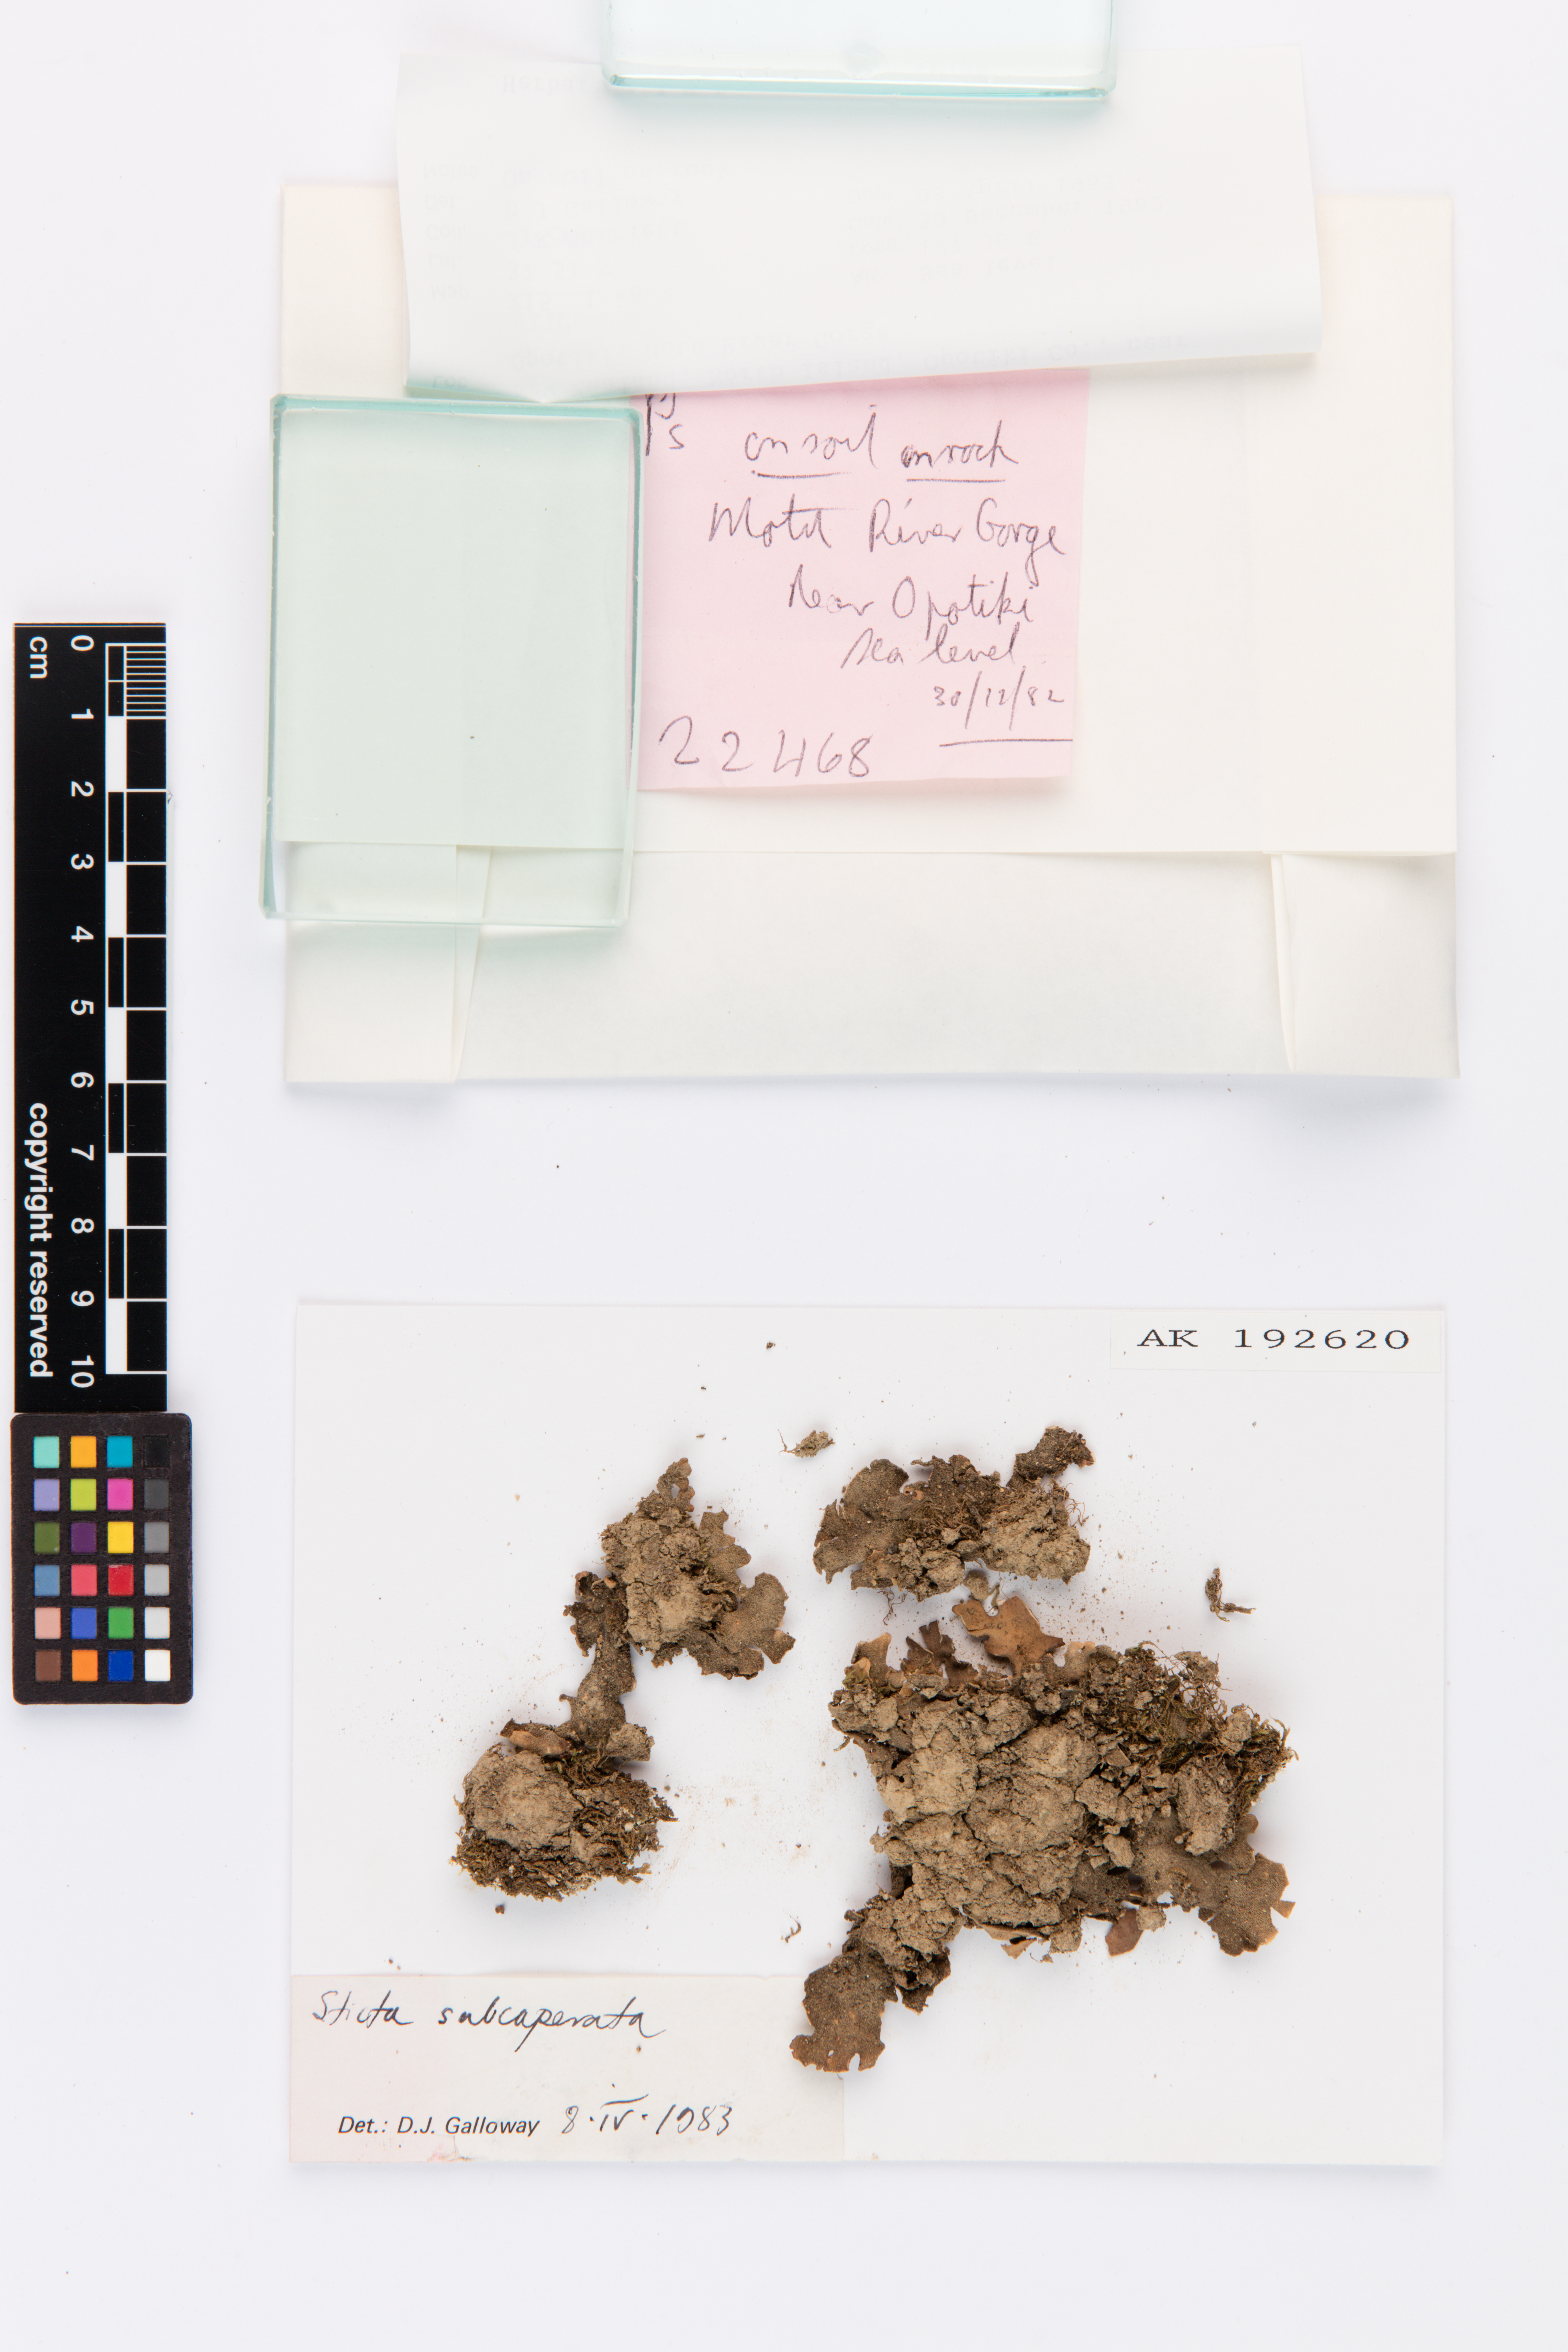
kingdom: Fungi
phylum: Ascomycota
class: Lecanoromycetes
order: Peltigerales
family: Lobariaceae
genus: Sticta
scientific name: Sticta subcaperata
